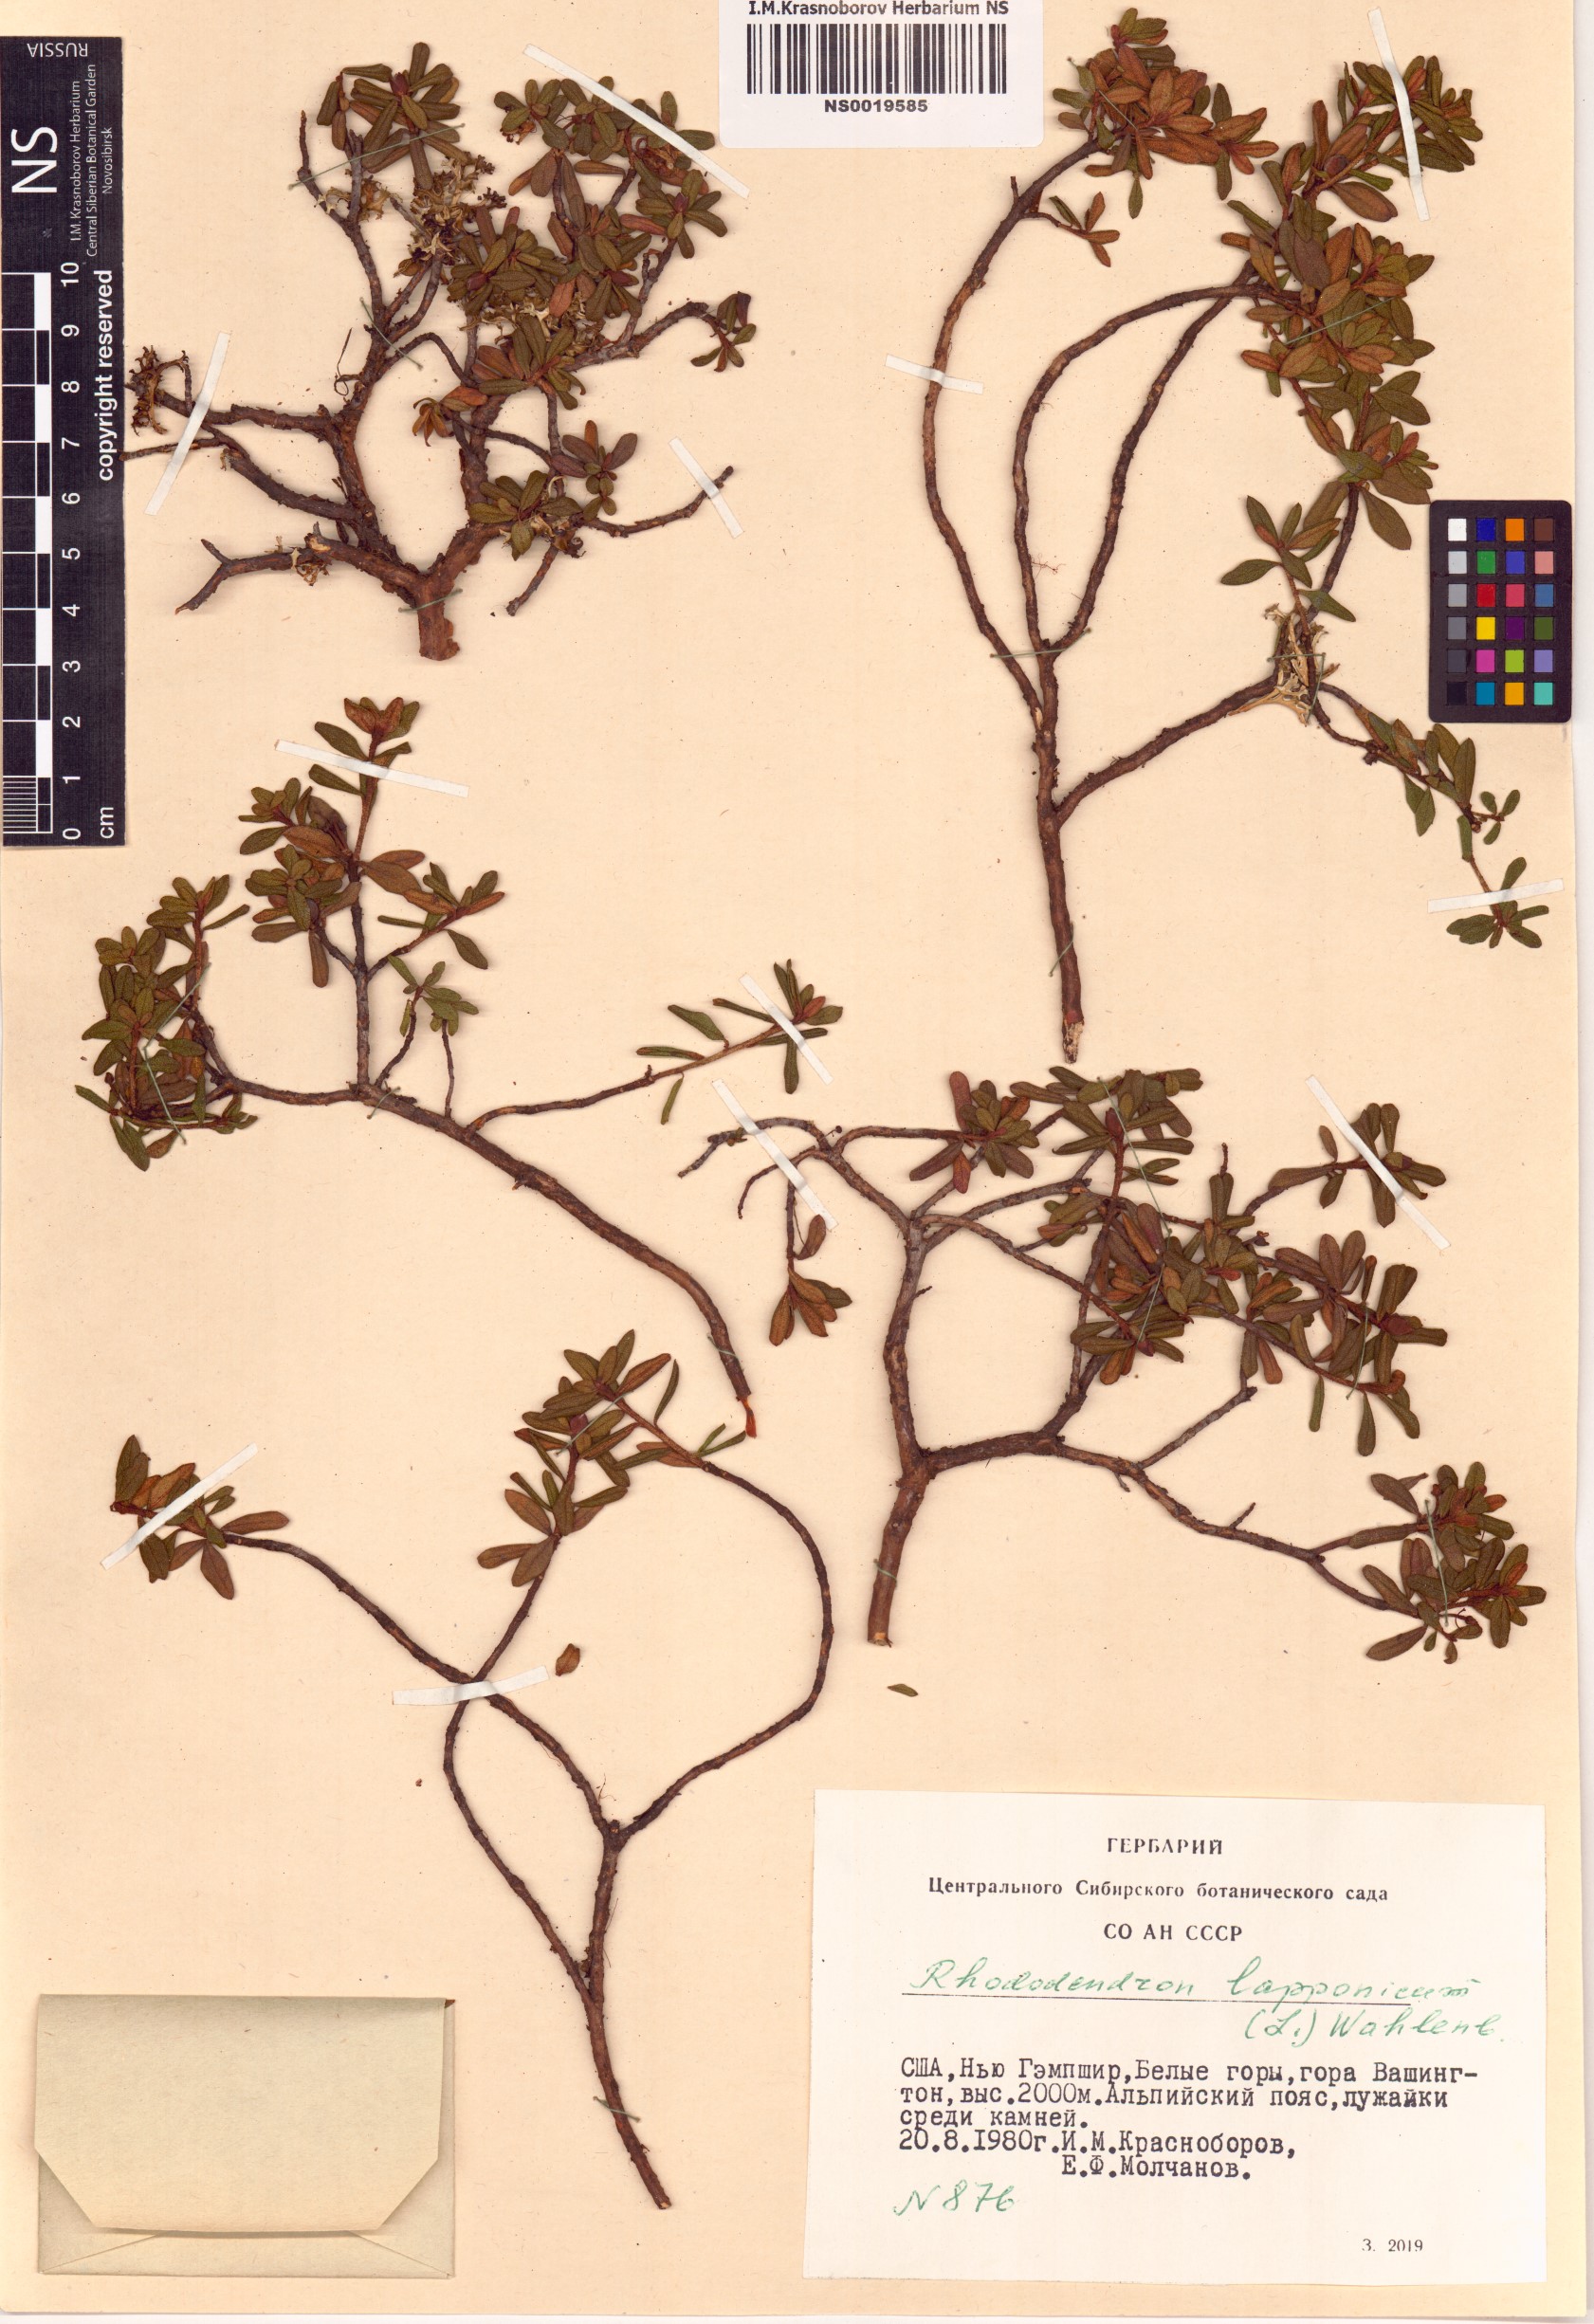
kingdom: Plantae
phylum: Tracheophyta
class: Magnoliopsida
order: Ericales
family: Ericaceae
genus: Rhododendron
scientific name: Rhododendron lapponicum
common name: Lapland rhododendron
